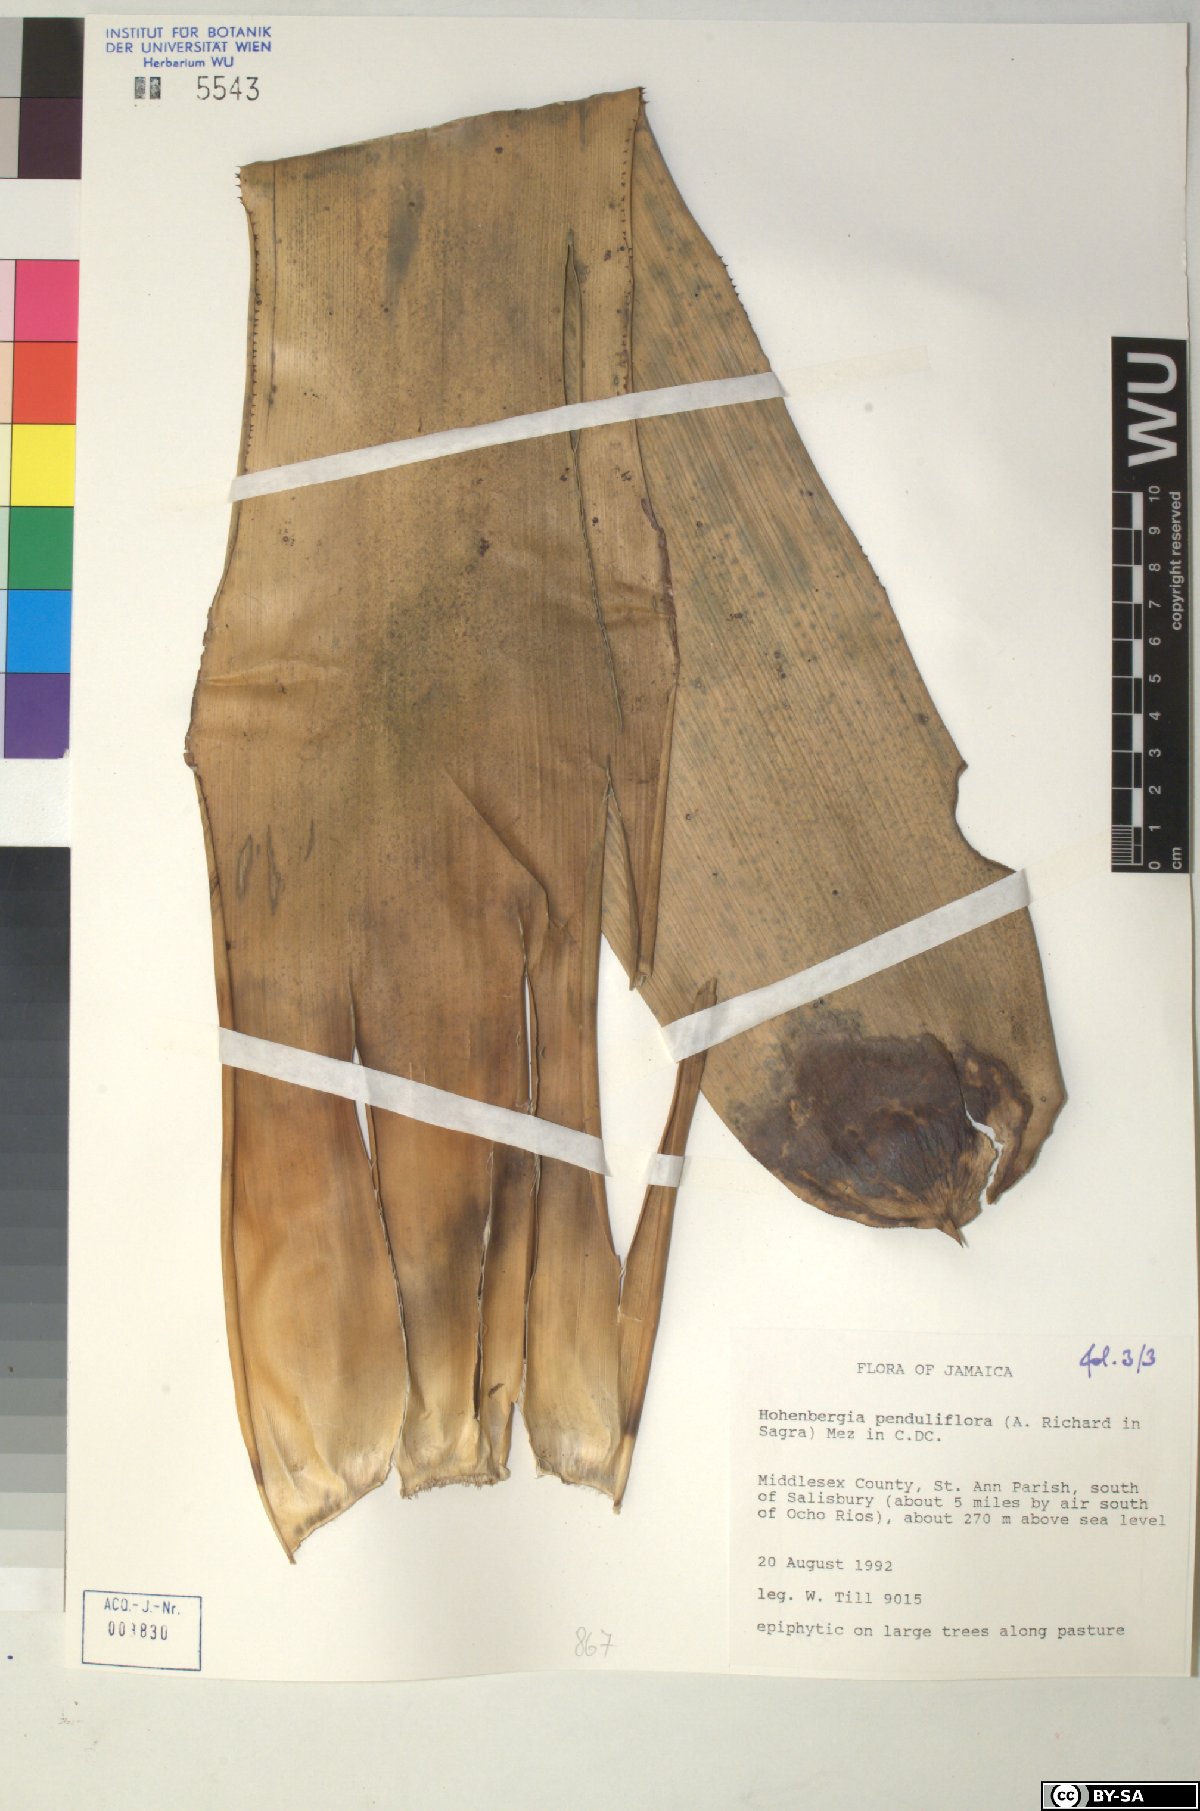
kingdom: Plantae
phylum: Tracheophyta
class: Liliopsida
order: Poales
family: Bromeliaceae
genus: Wittmackia
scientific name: Wittmackia penduliflora
